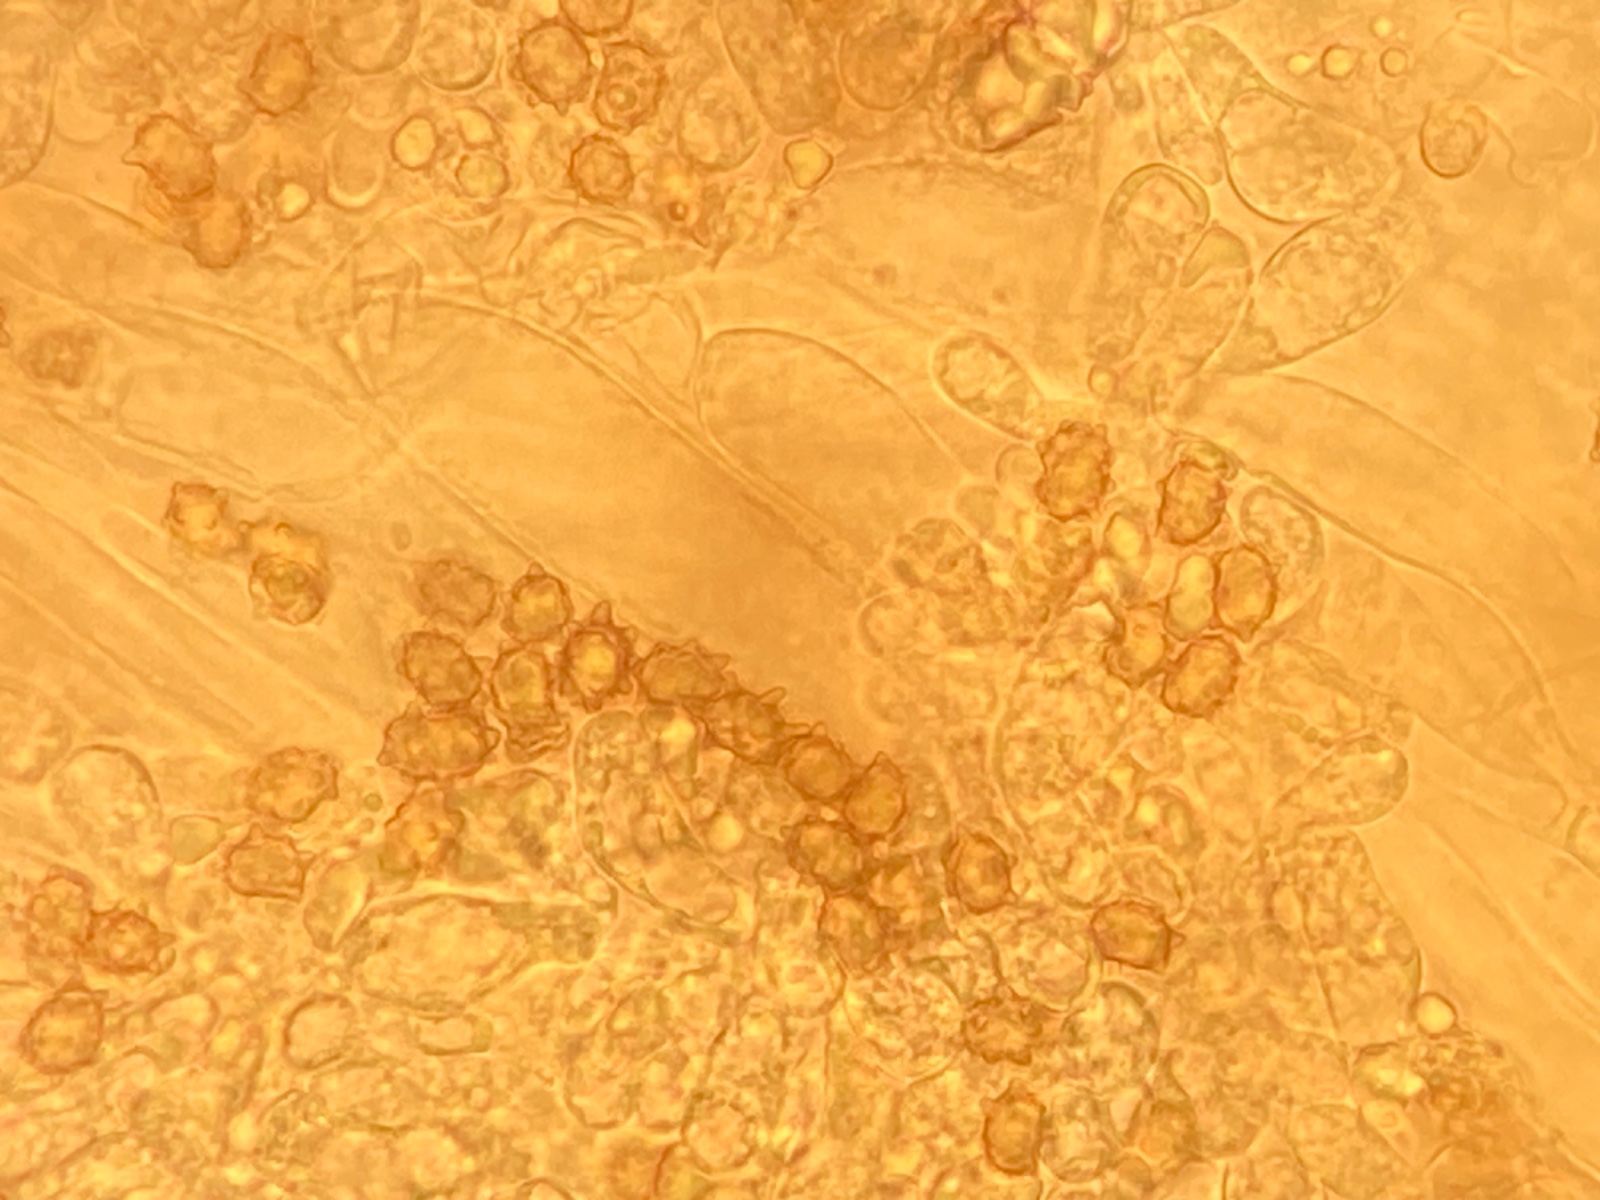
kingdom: Fungi
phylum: Basidiomycota
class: Agaricomycetes
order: Agaricales
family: Inocybaceae
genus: Inocybe
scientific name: Inocybe leptophylla
